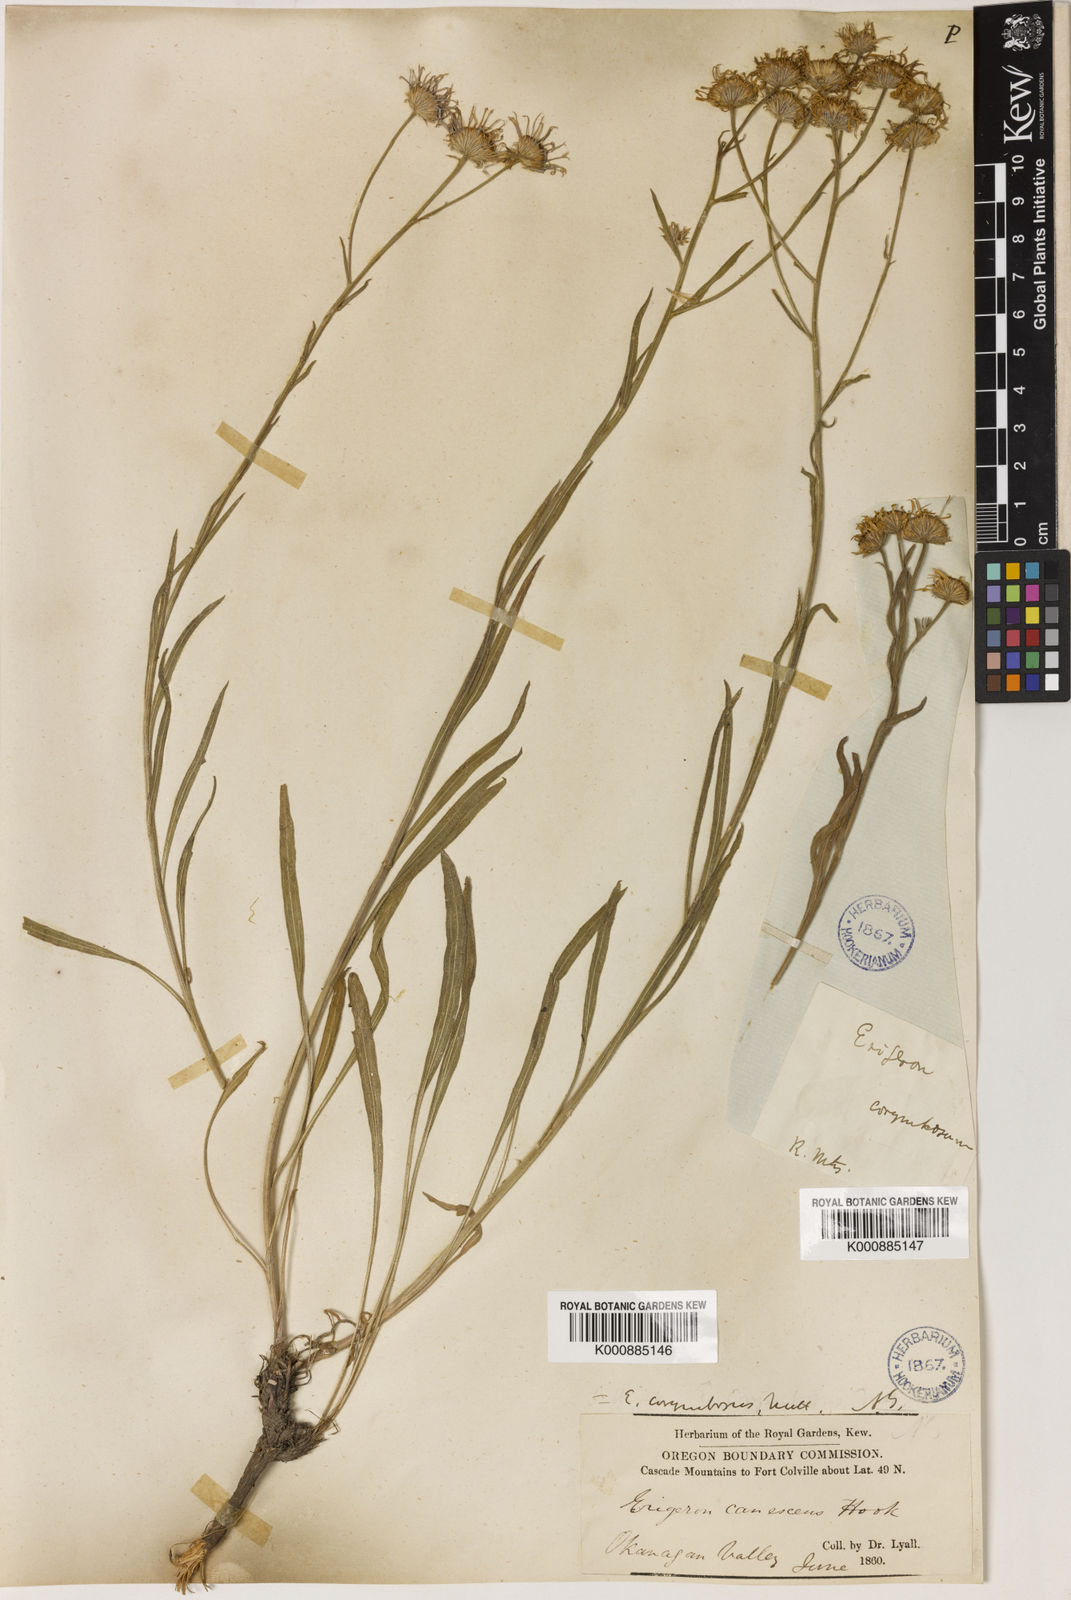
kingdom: Plantae
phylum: Tracheophyta
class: Magnoliopsida
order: Asterales
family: Asteraceae
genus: Erigeron
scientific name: Erigeron corymbosus
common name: Longleaf fleabane
